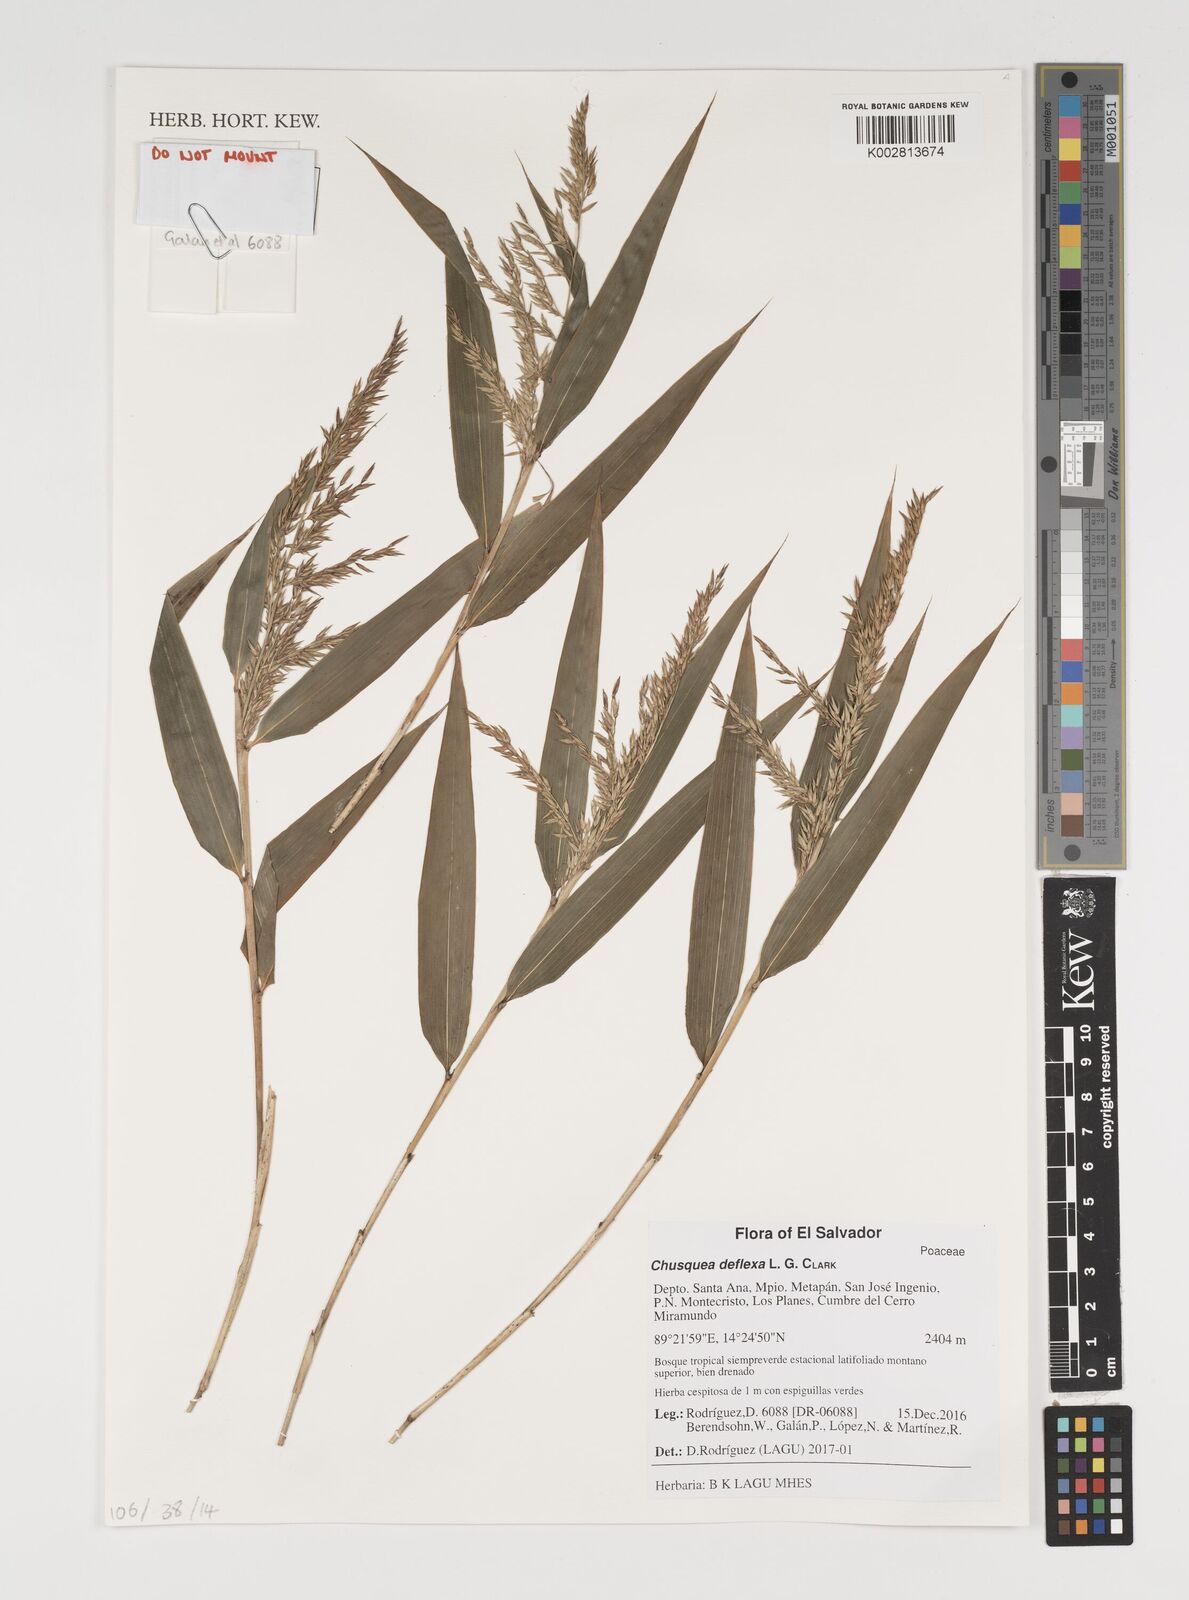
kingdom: Plantae
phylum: Tracheophyta
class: Liliopsida
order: Poales
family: Poaceae
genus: Chusquea
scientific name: Chusquea deflexa
